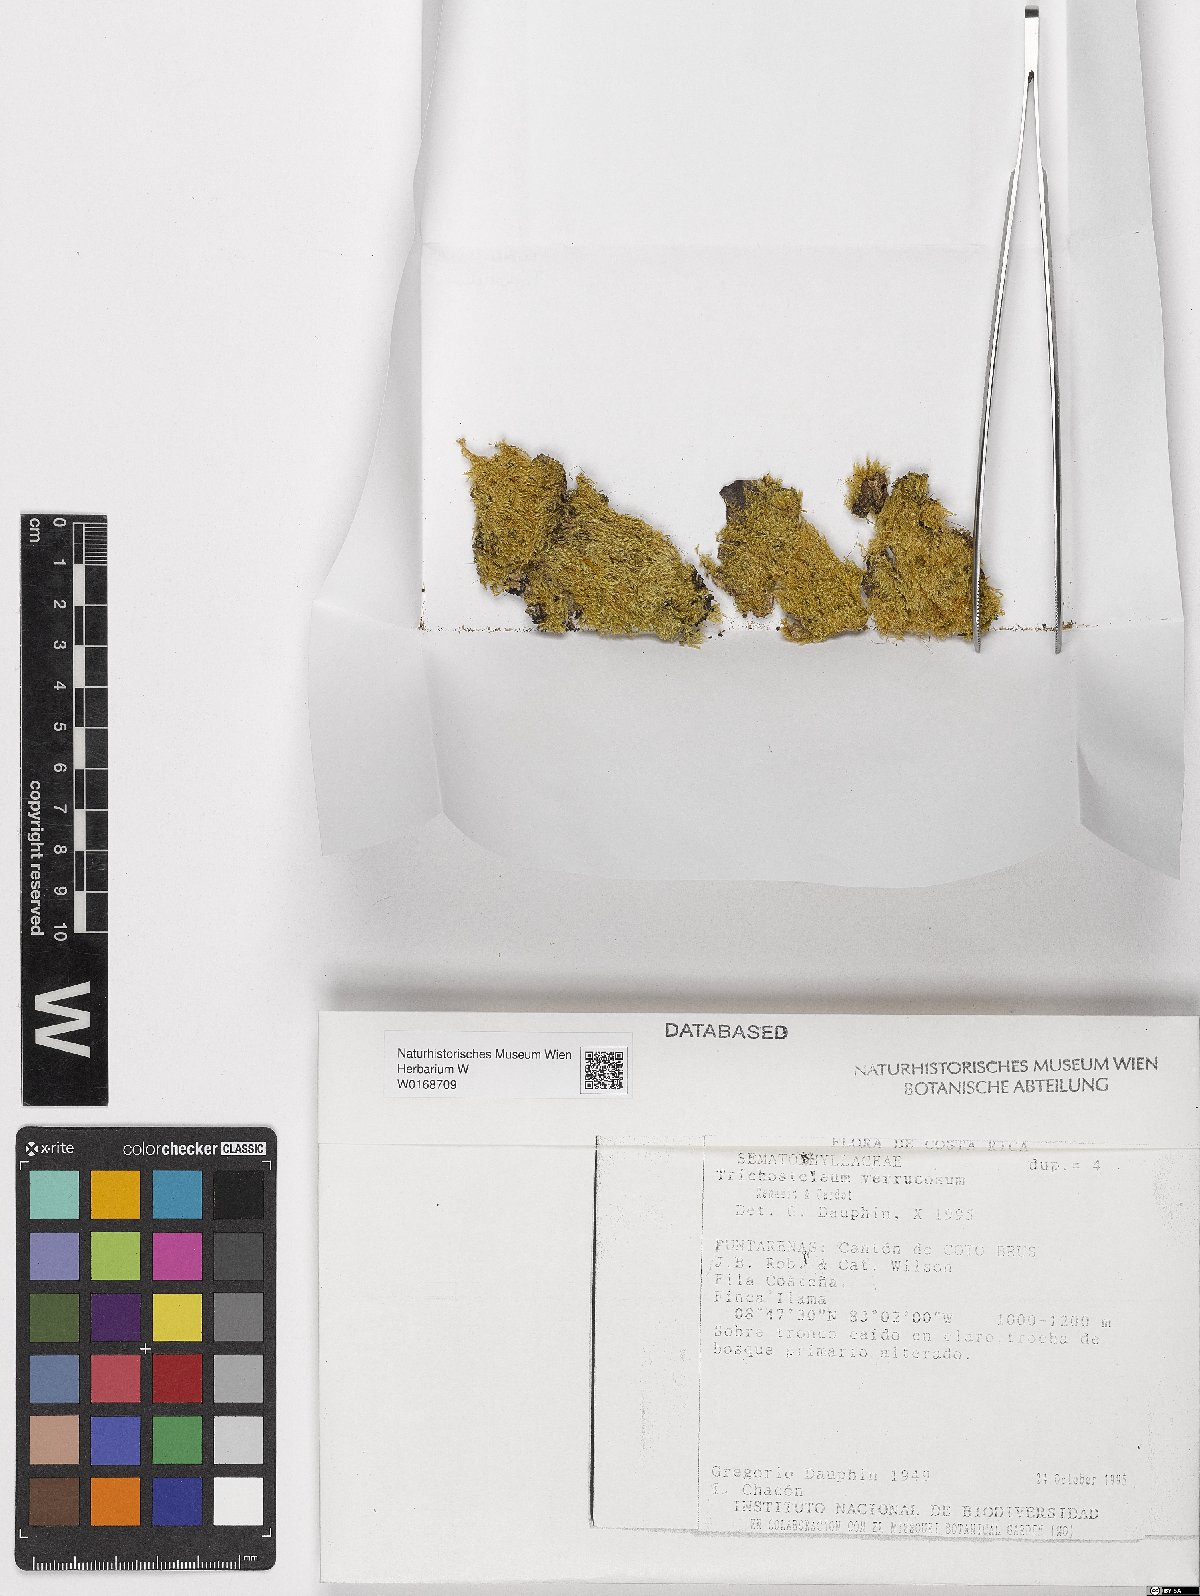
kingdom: Plantae
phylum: Bryophyta
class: Bryopsida
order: Hypnales
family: Sematophyllaceae
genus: Trichosteleum
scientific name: Trichosteleum verrucosum
